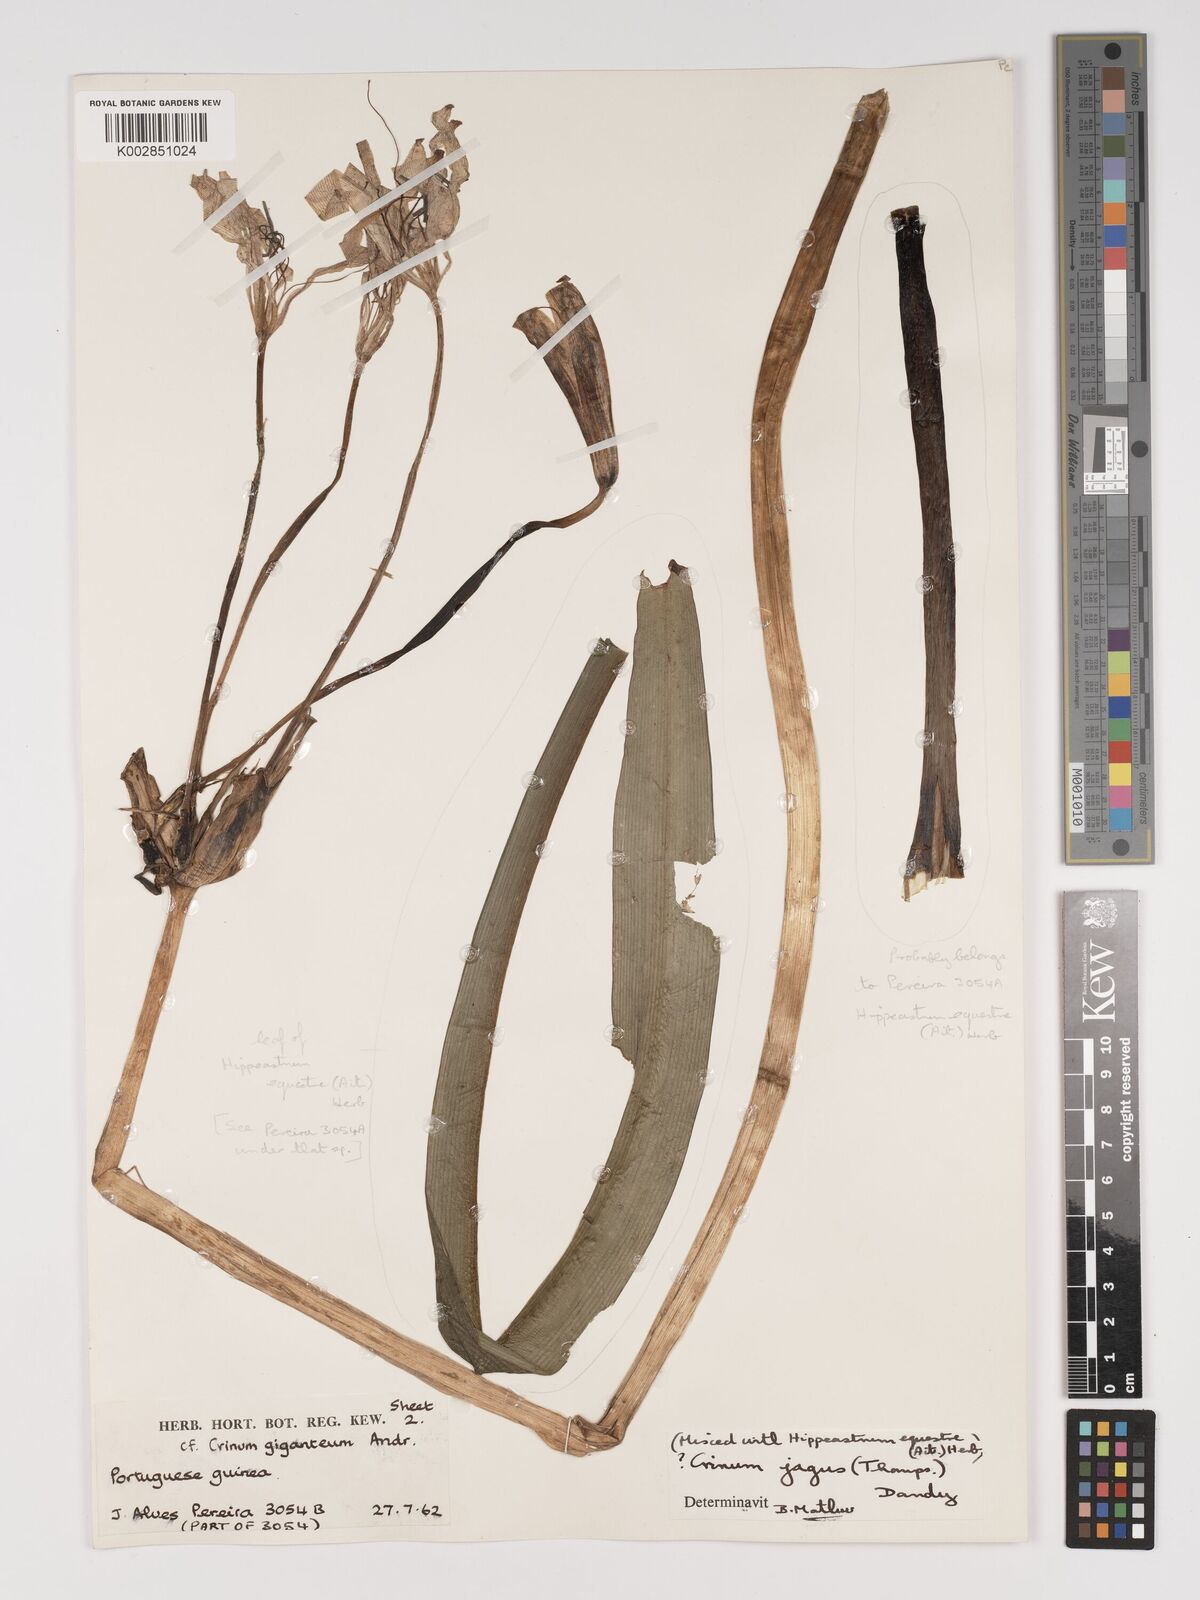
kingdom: Plantae
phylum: Tracheophyta
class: Liliopsida
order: Asparagales
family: Amaryllidaceae
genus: Crinum
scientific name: Crinum jagus
